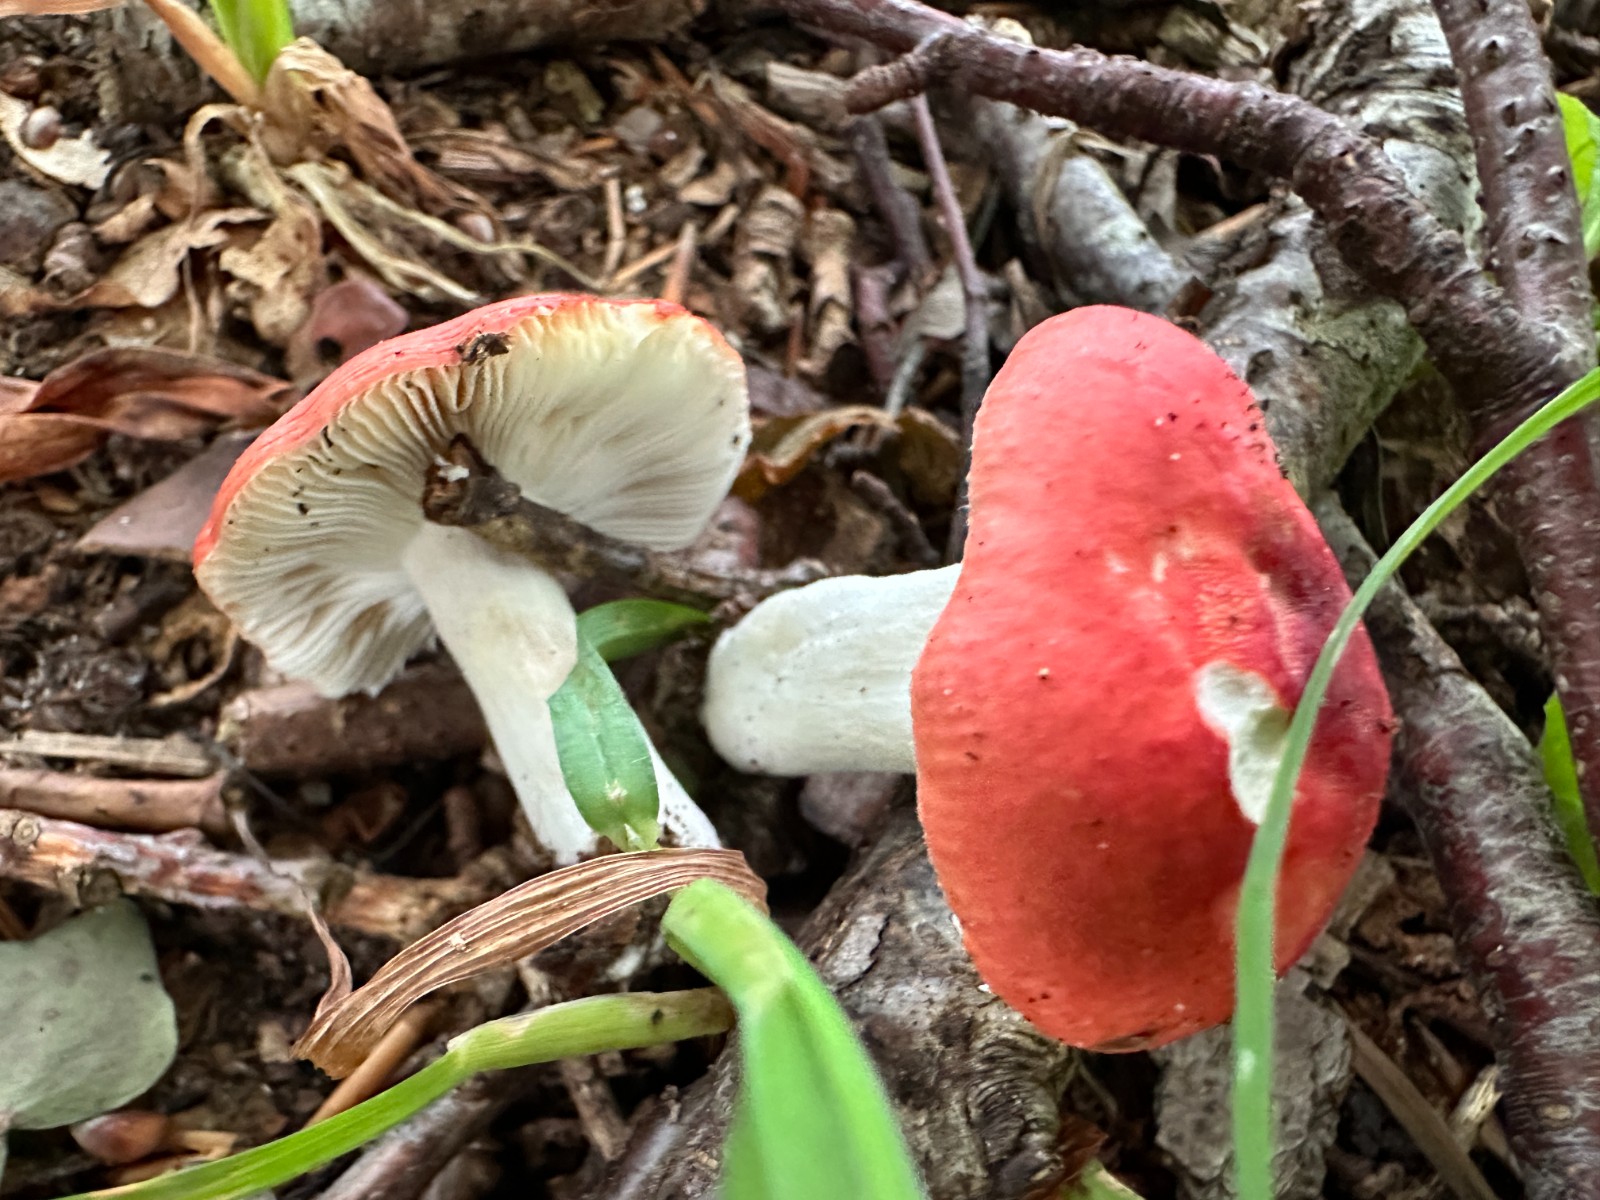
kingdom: Fungi
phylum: Basidiomycota
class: Agaricomycetes
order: Russulales
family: Russulaceae
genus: Russula
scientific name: Russula luteotacta
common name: gulplettet gift-skørhat
